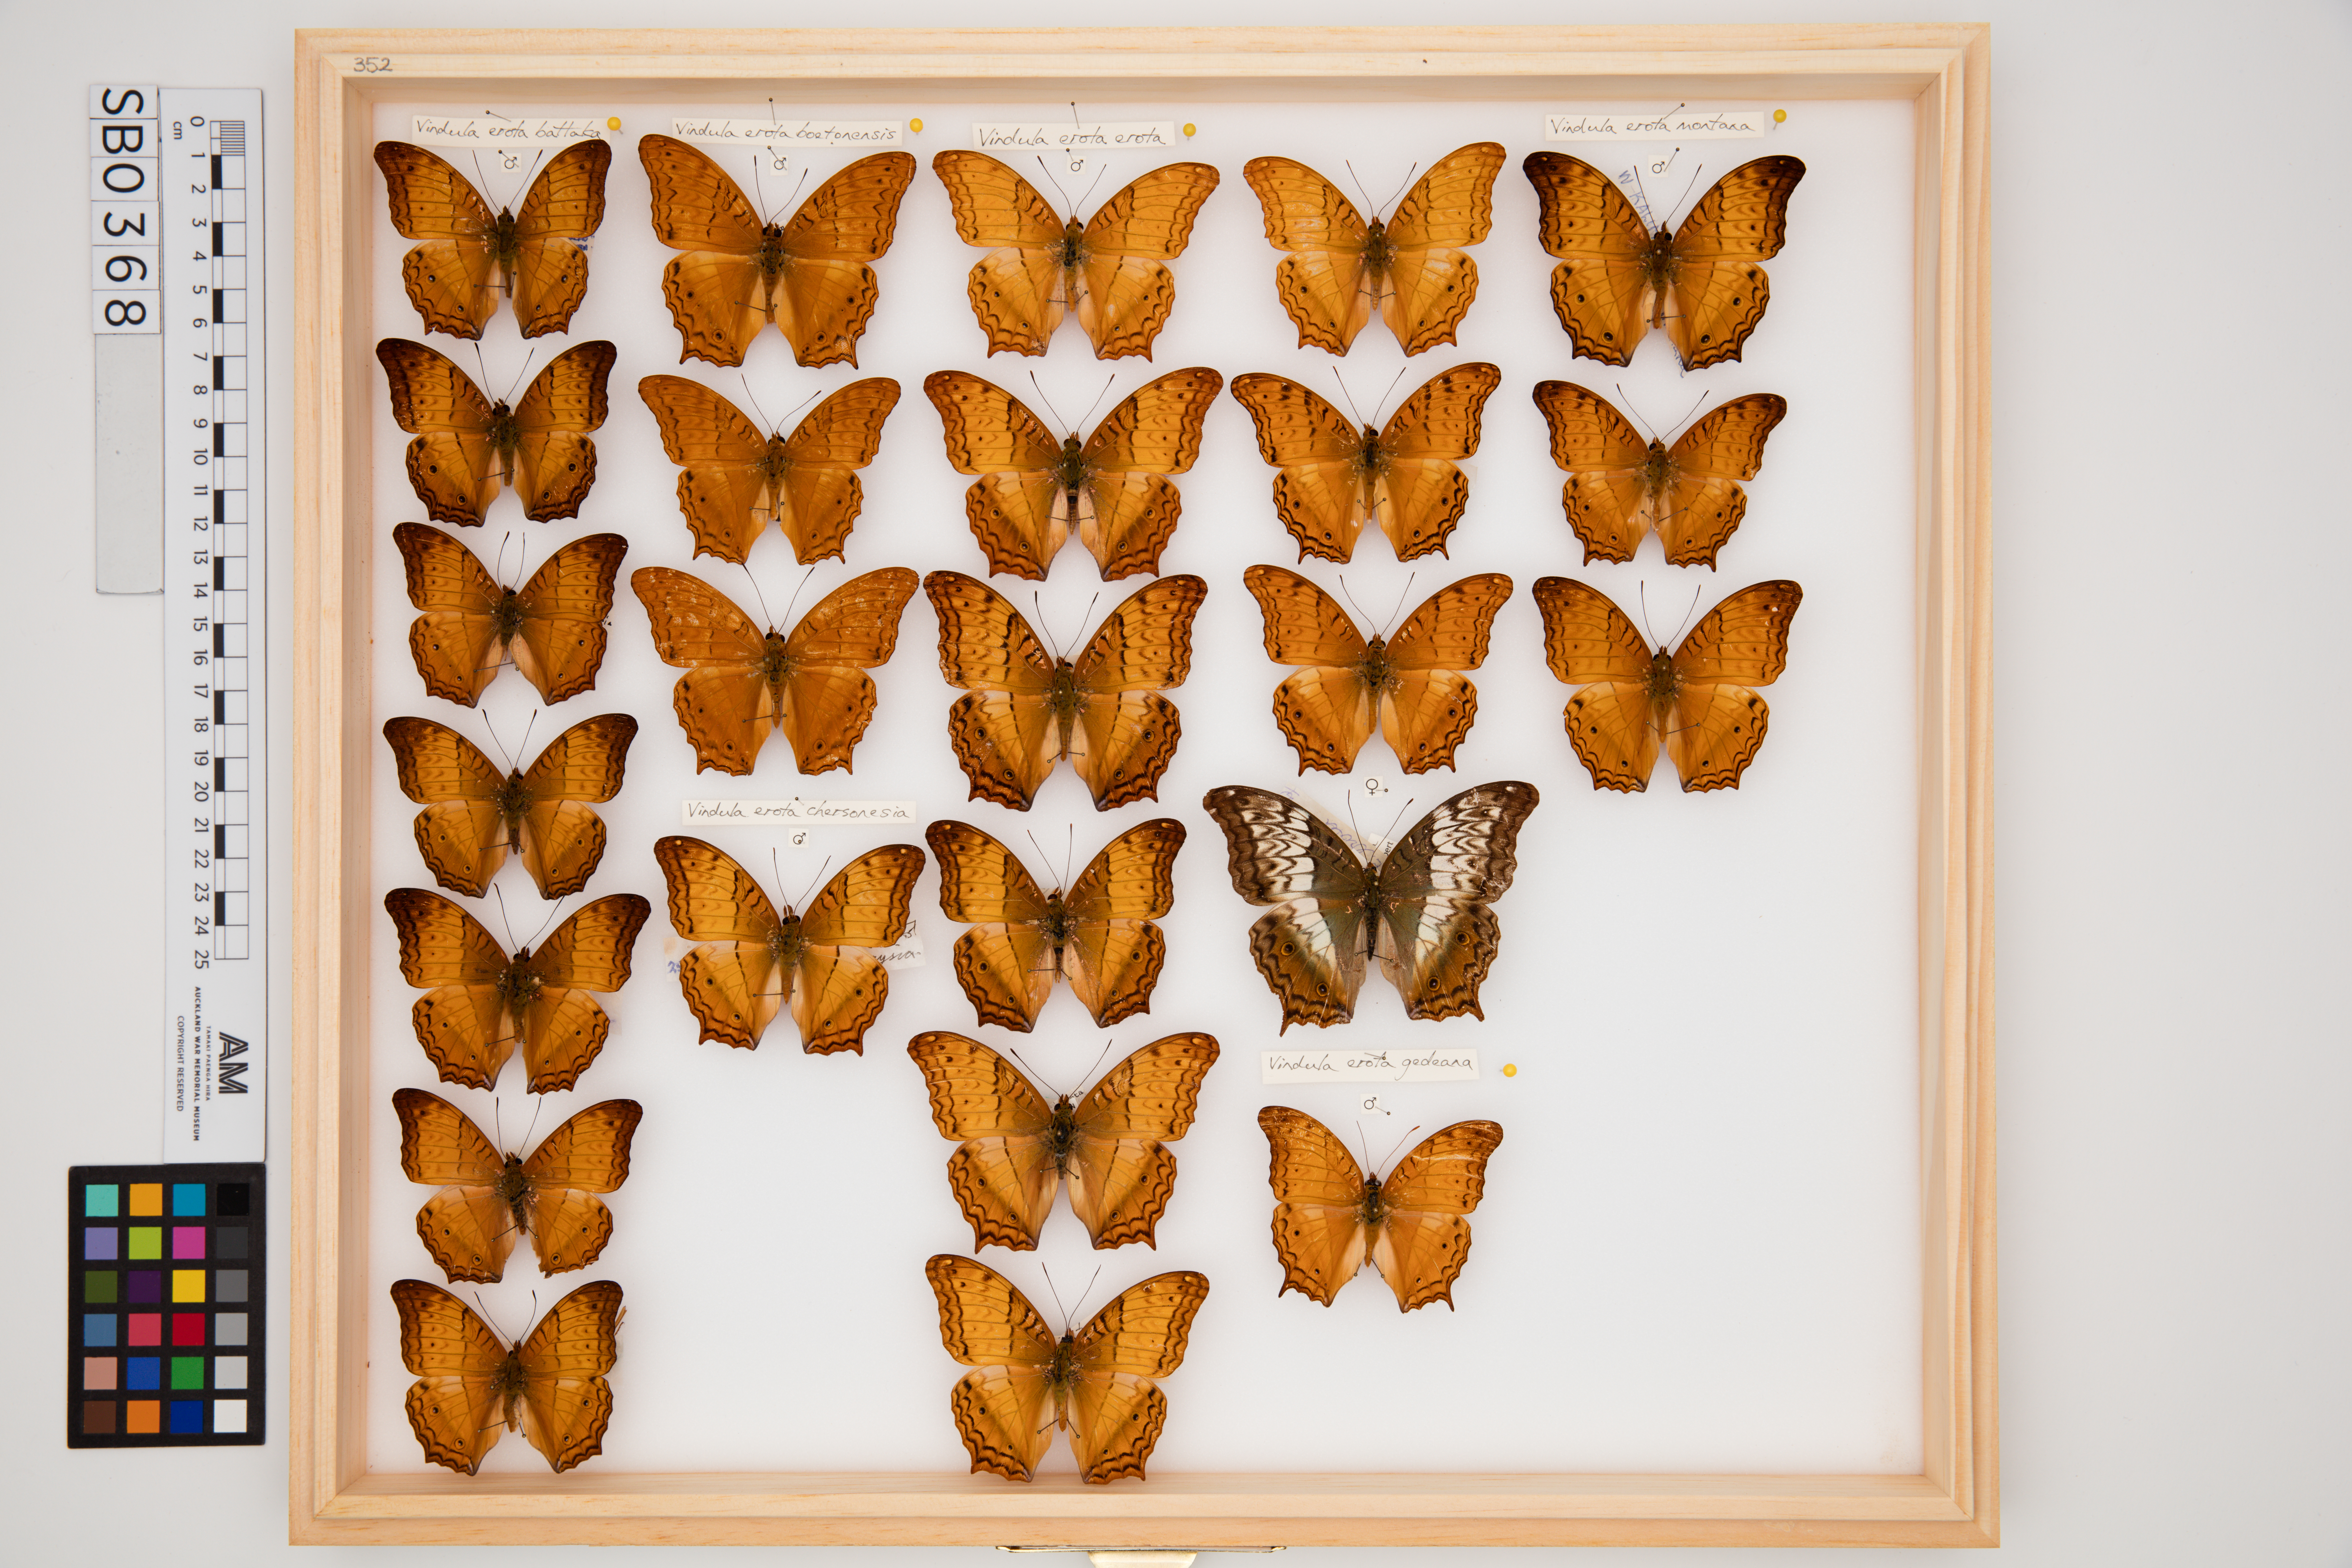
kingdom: Animalia
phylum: Arthropoda
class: Insecta
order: Lepidoptera
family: Nymphalidae
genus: Vindula
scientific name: Vindula erota
